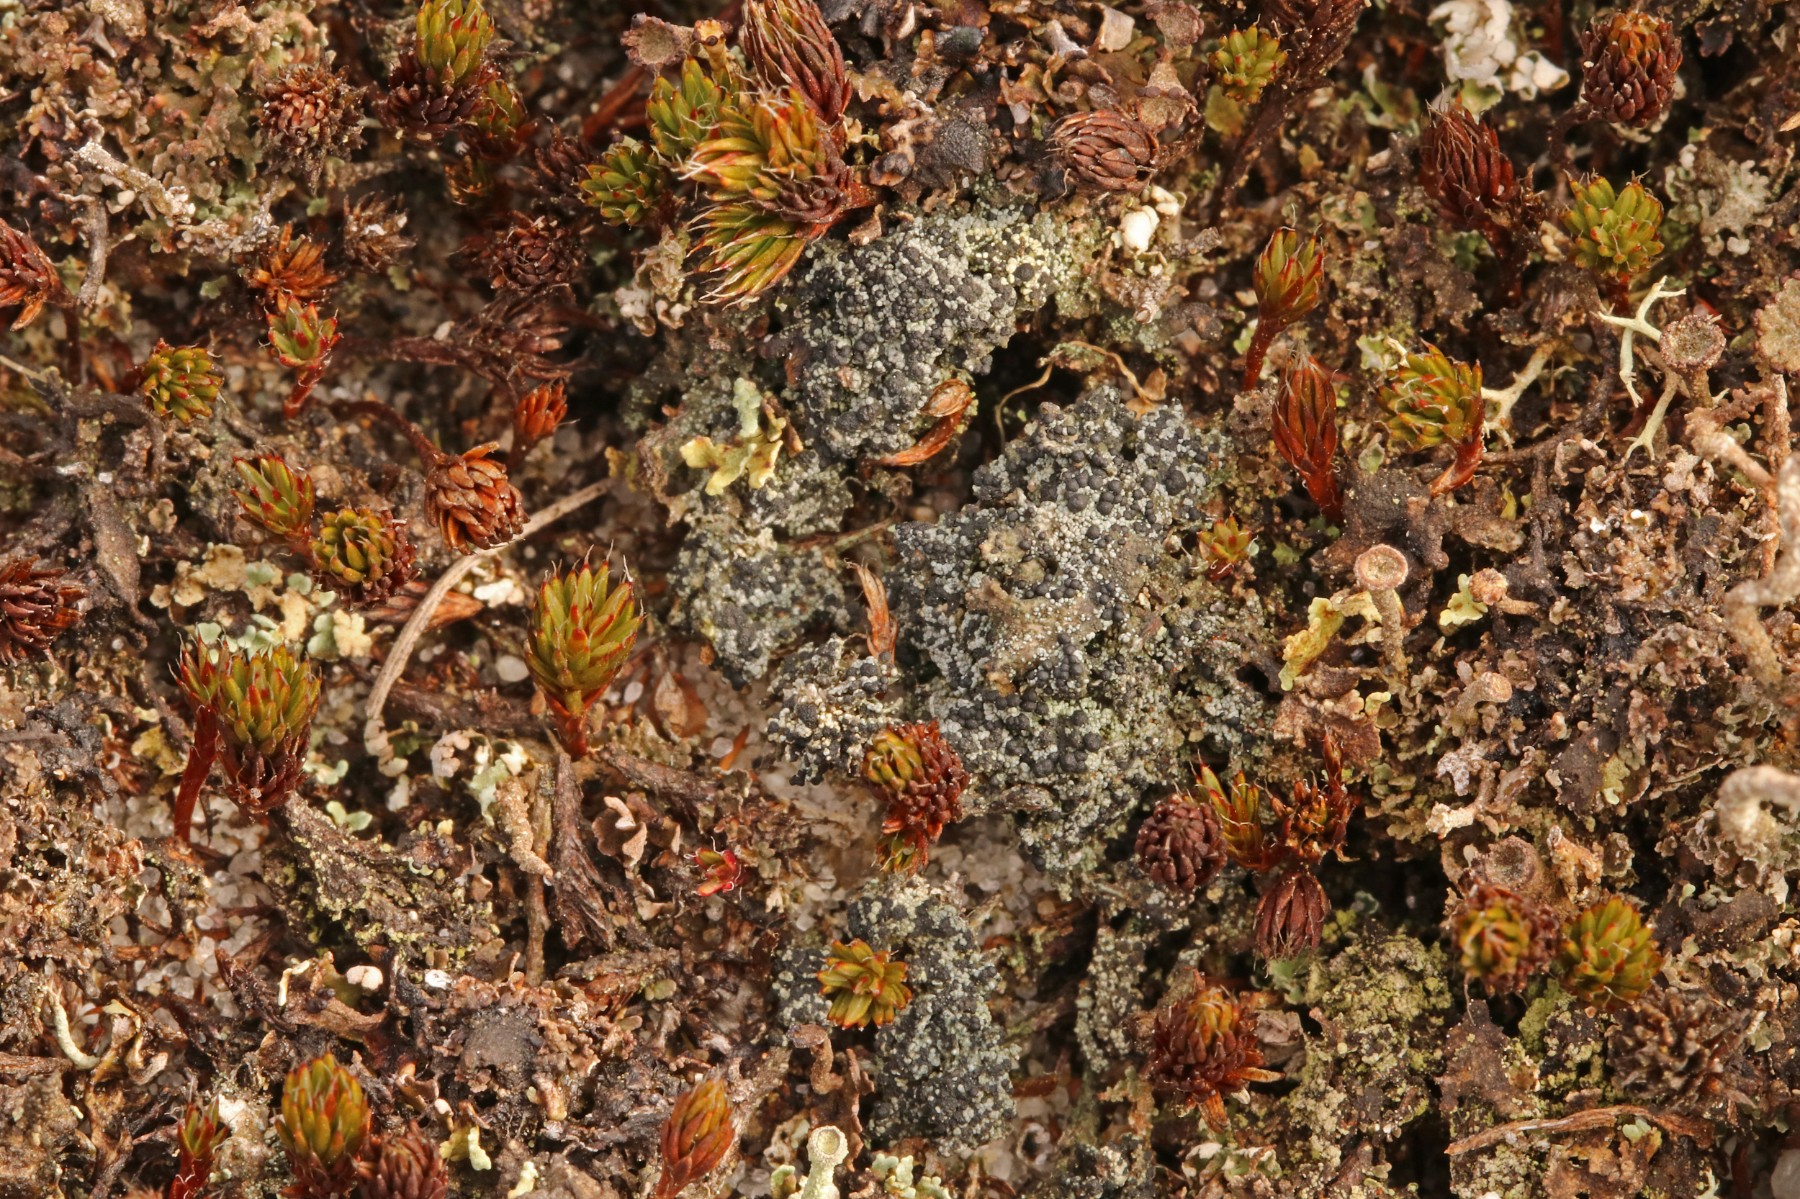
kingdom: Fungi
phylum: Ascomycota
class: Lecanoromycetes
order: Lecanorales
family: Byssolomataceae
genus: Micarea
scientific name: Micarea lignaria
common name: tørve-knaplav
